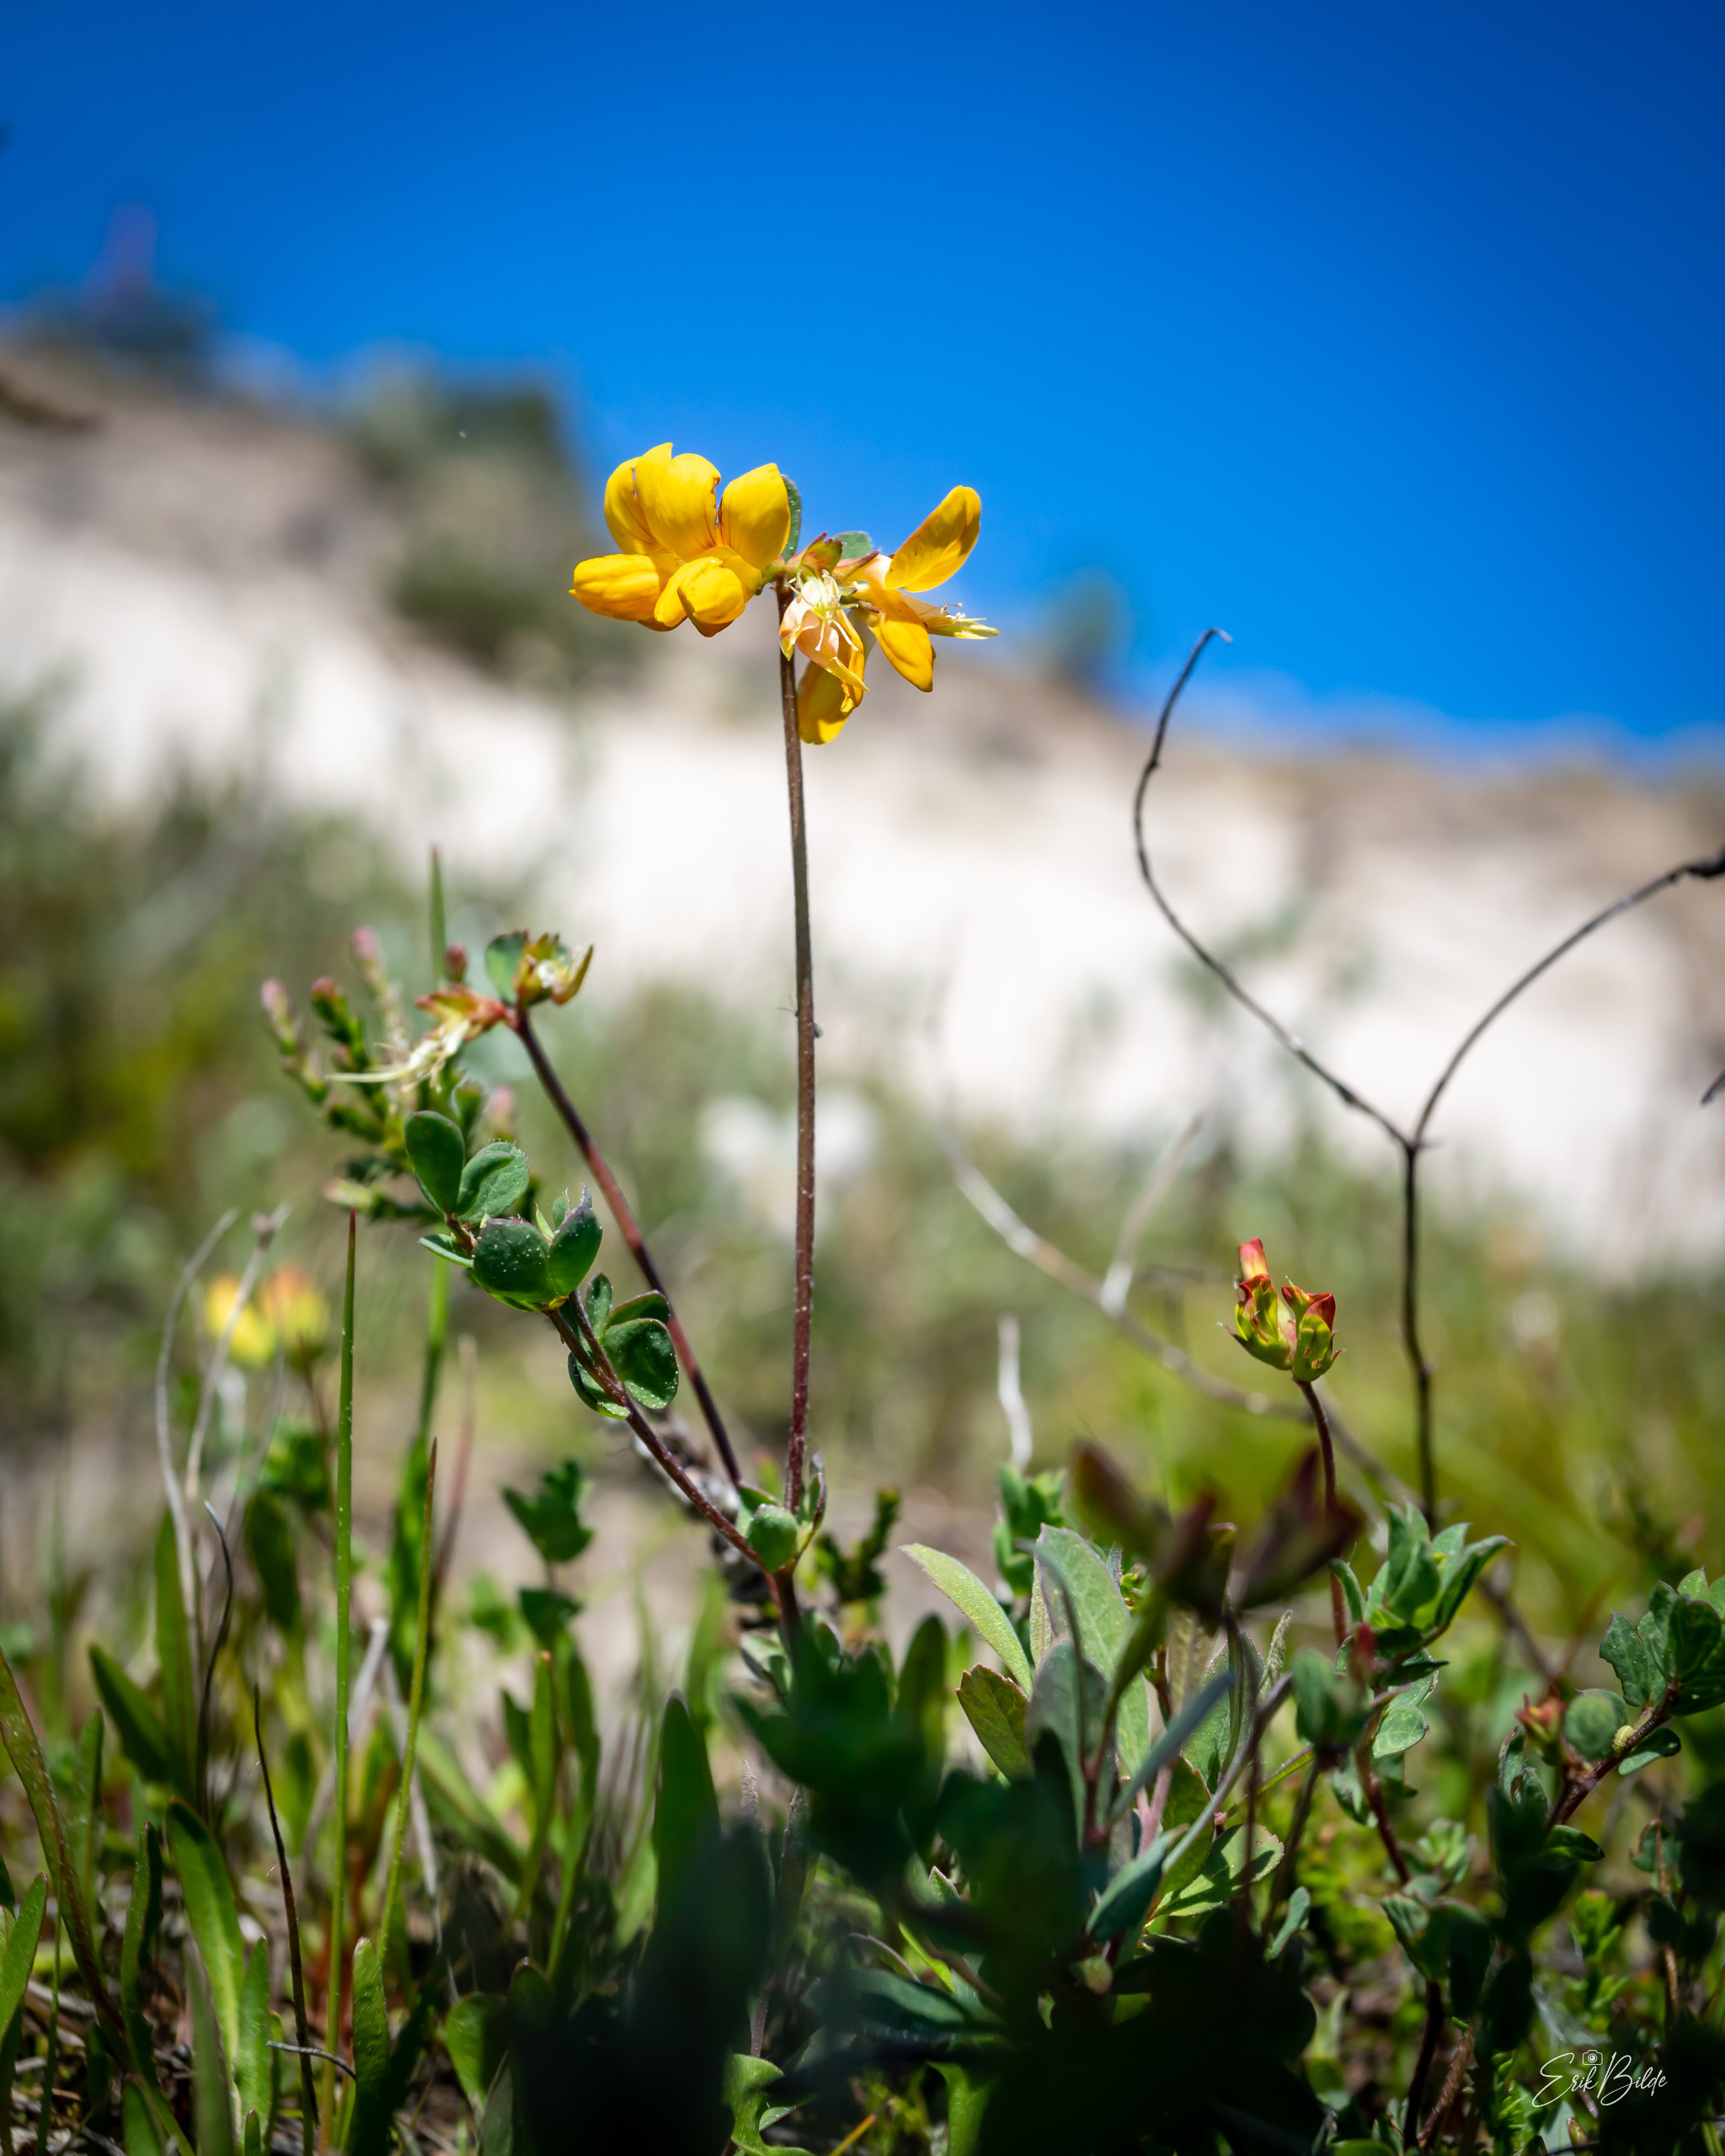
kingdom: Plantae
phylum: Tracheophyta
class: Magnoliopsida
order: Fabales
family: Fabaceae
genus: Lotus
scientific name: Lotus corniculatus
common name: Almindelig kællingetand
